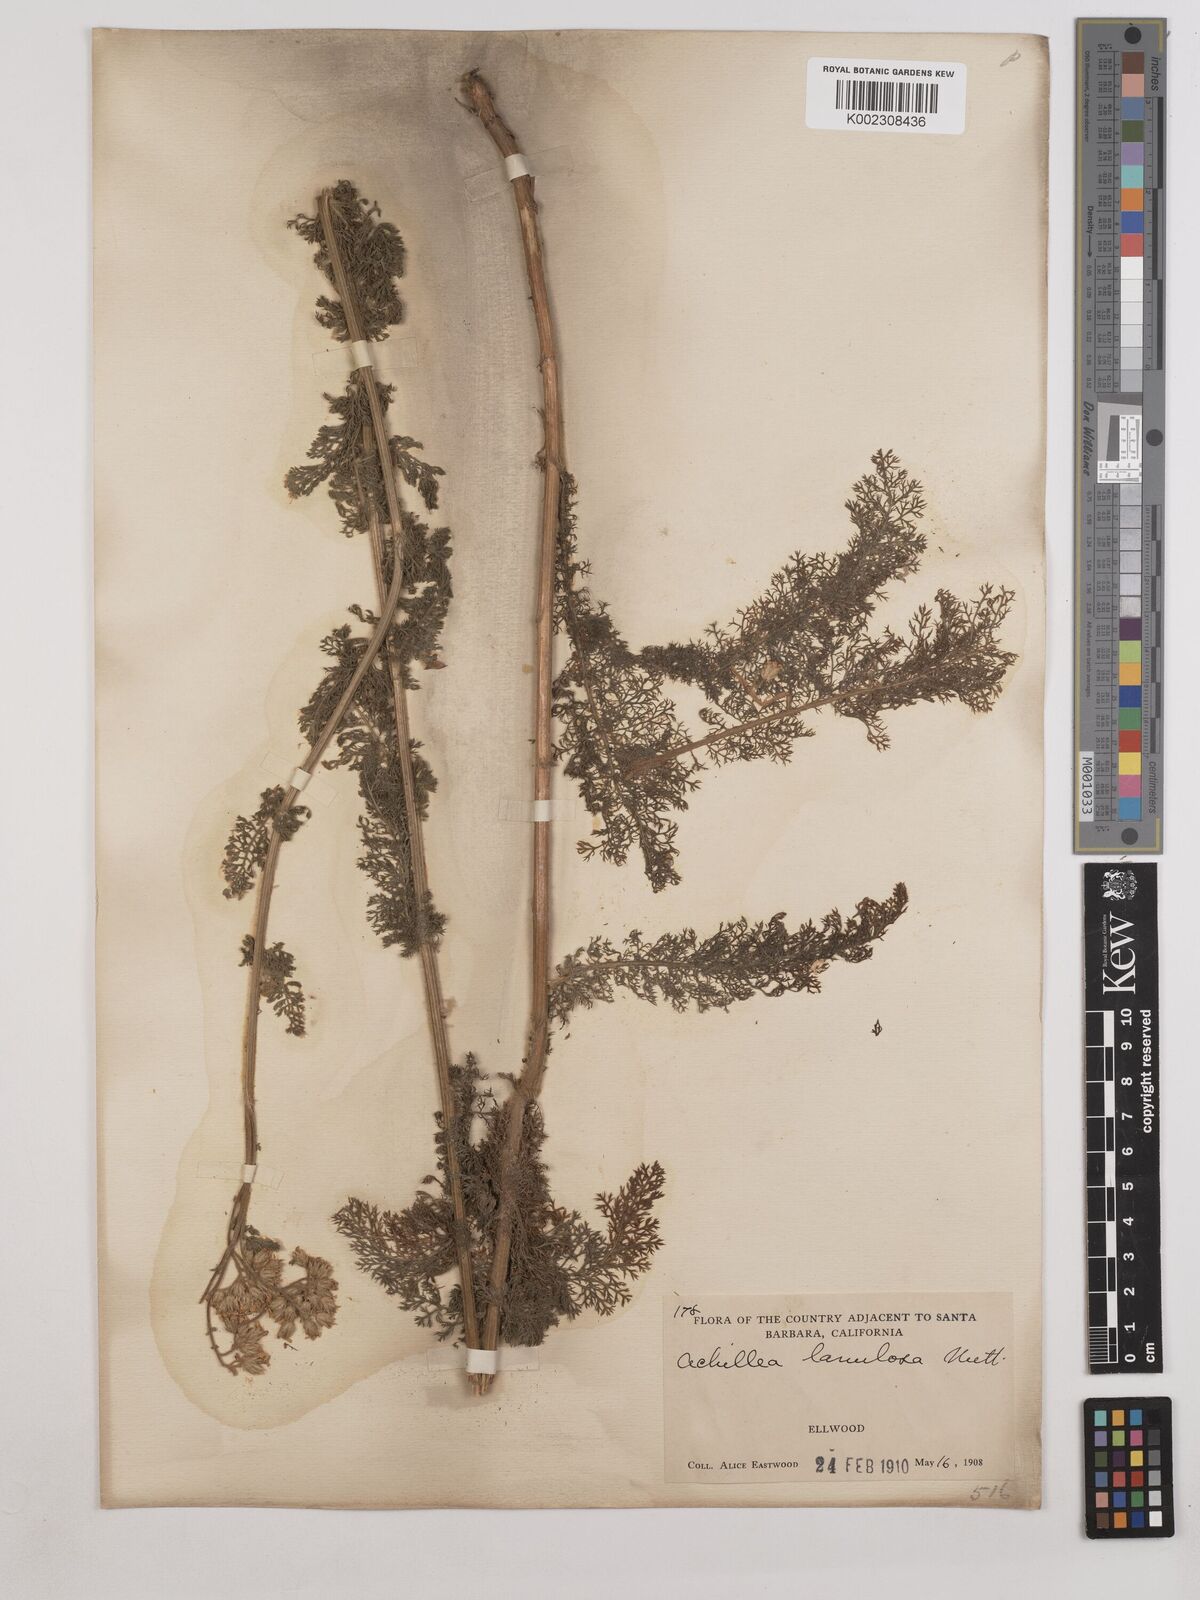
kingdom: Plantae
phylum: Tracheophyta
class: Magnoliopsida
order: Asterales
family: Asteraceae
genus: Achillea
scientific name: Achillea millefolium
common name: Yarrow
